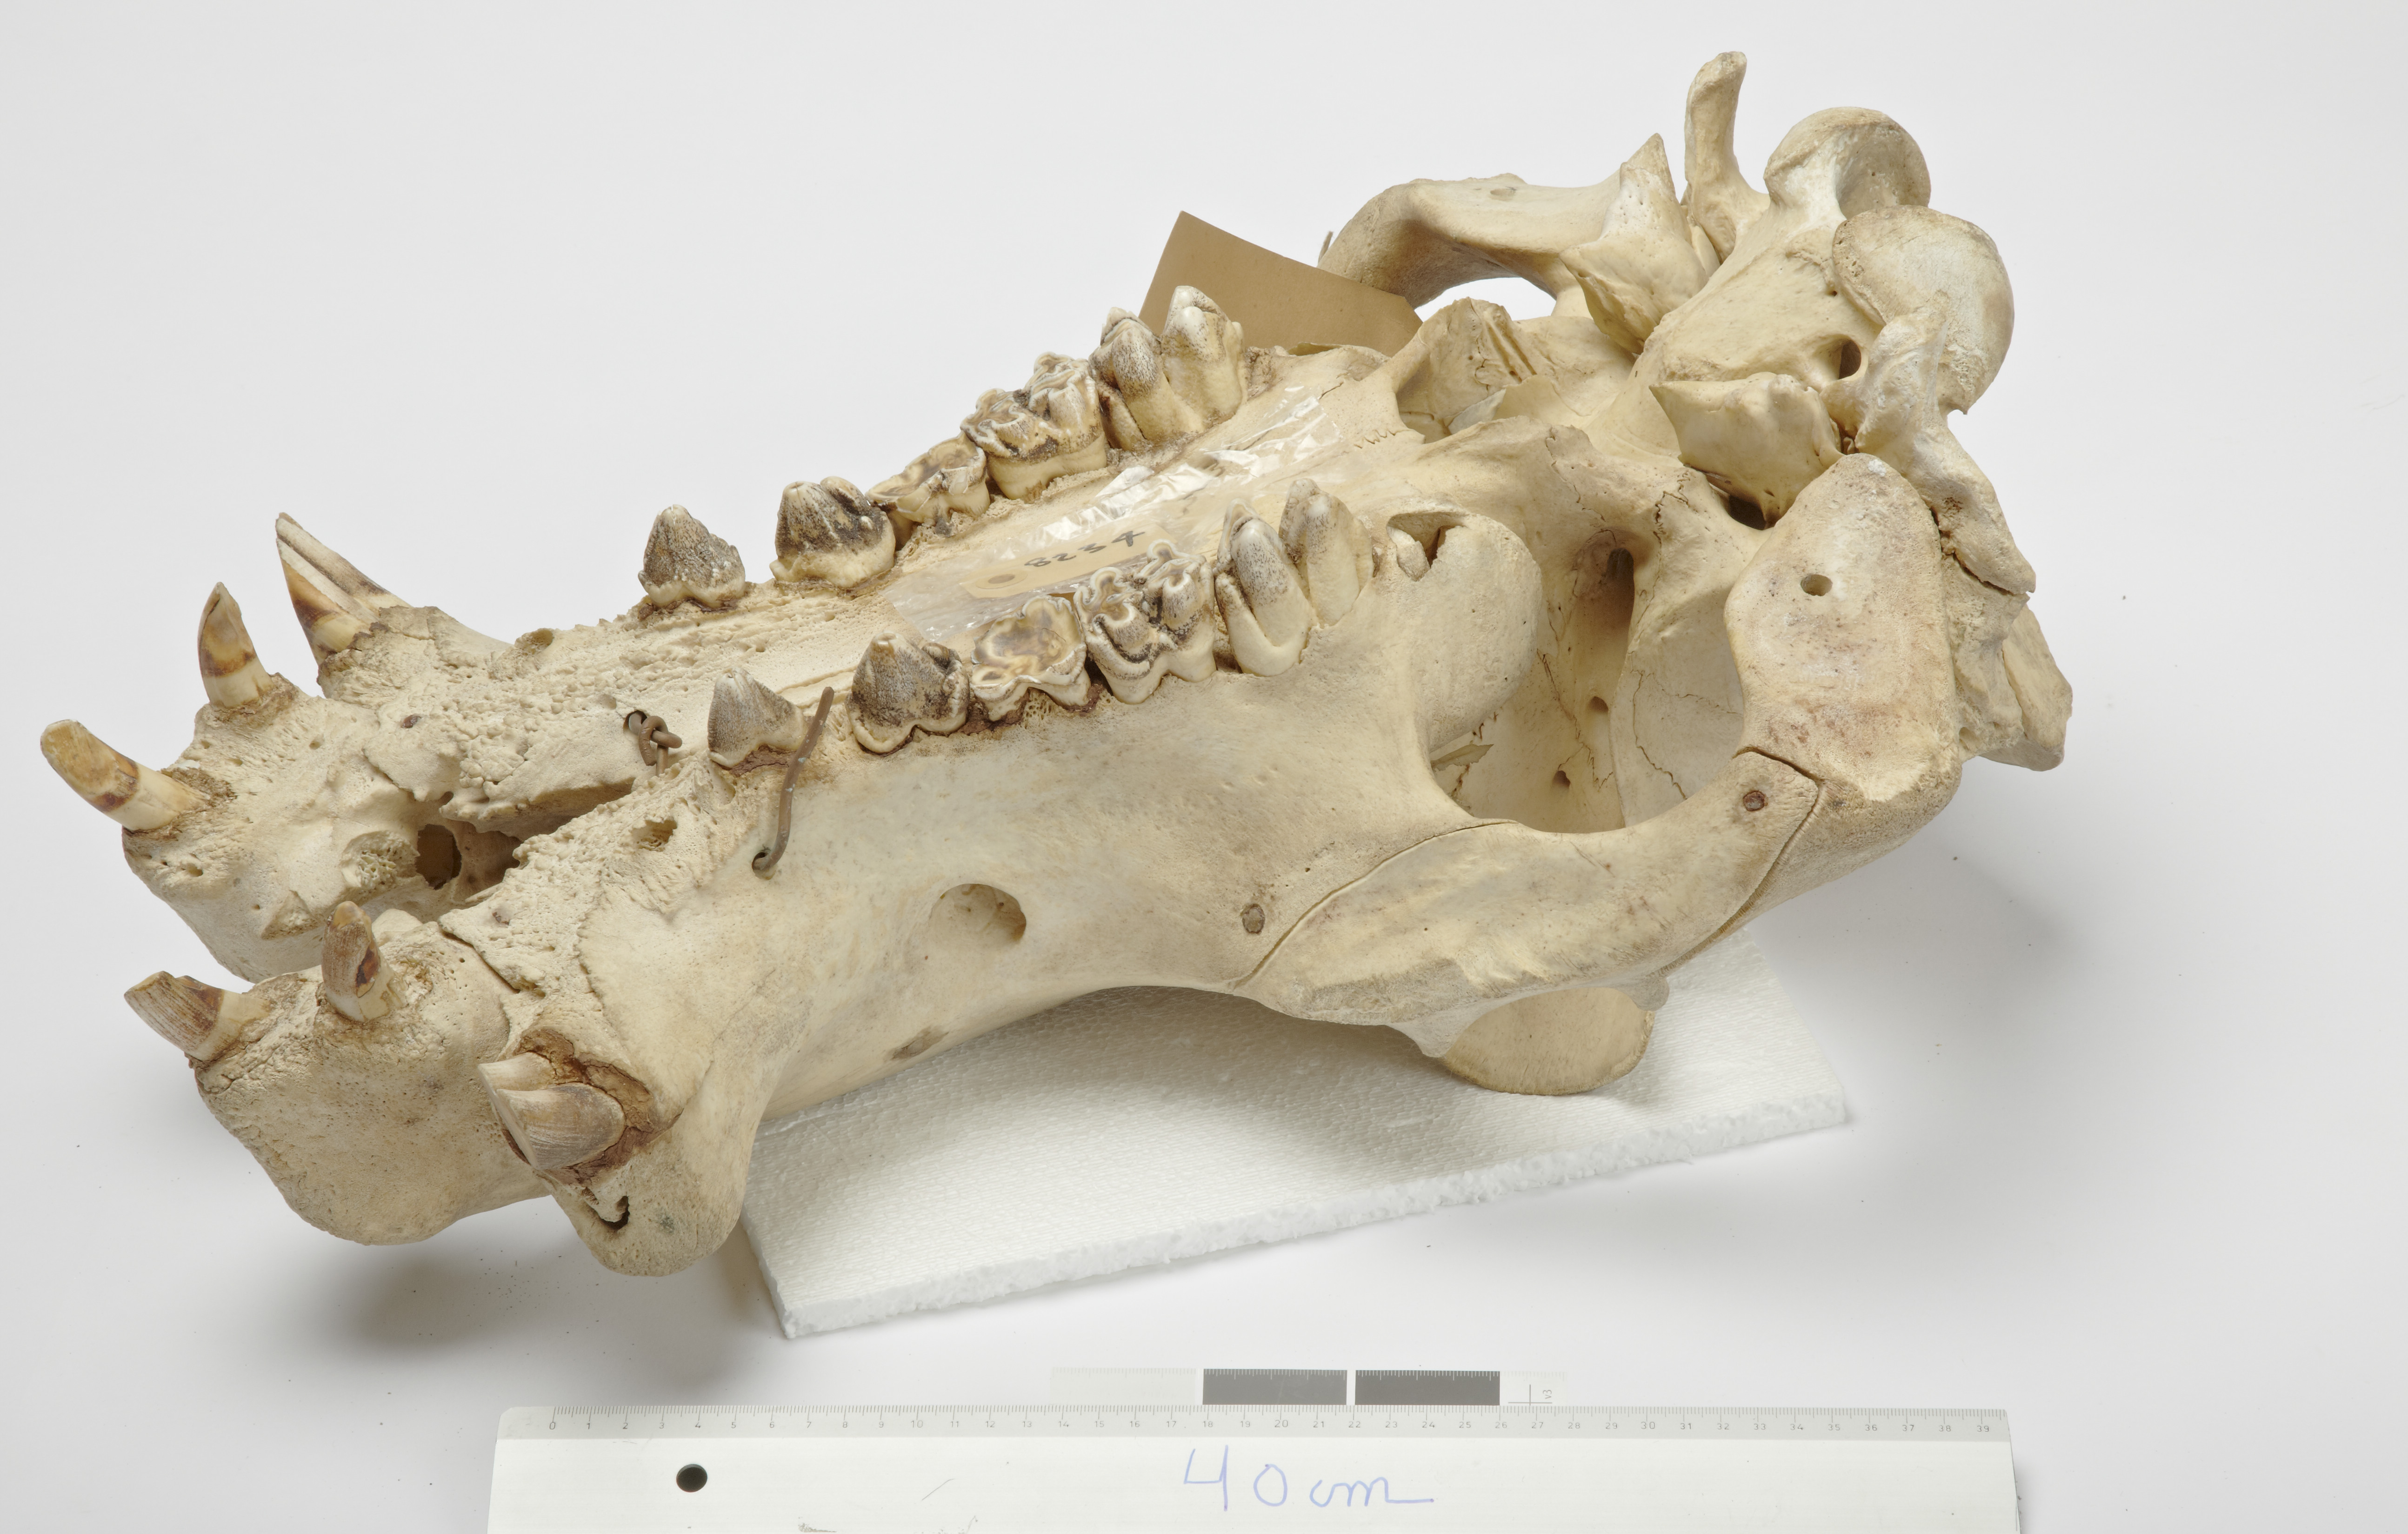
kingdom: Animalia
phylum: Chordata
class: Mammalia
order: Artiodactyla
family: Hippopotamidae
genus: Hippopotamus
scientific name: Hippopotamus amphibius
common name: Common hippopotamus
